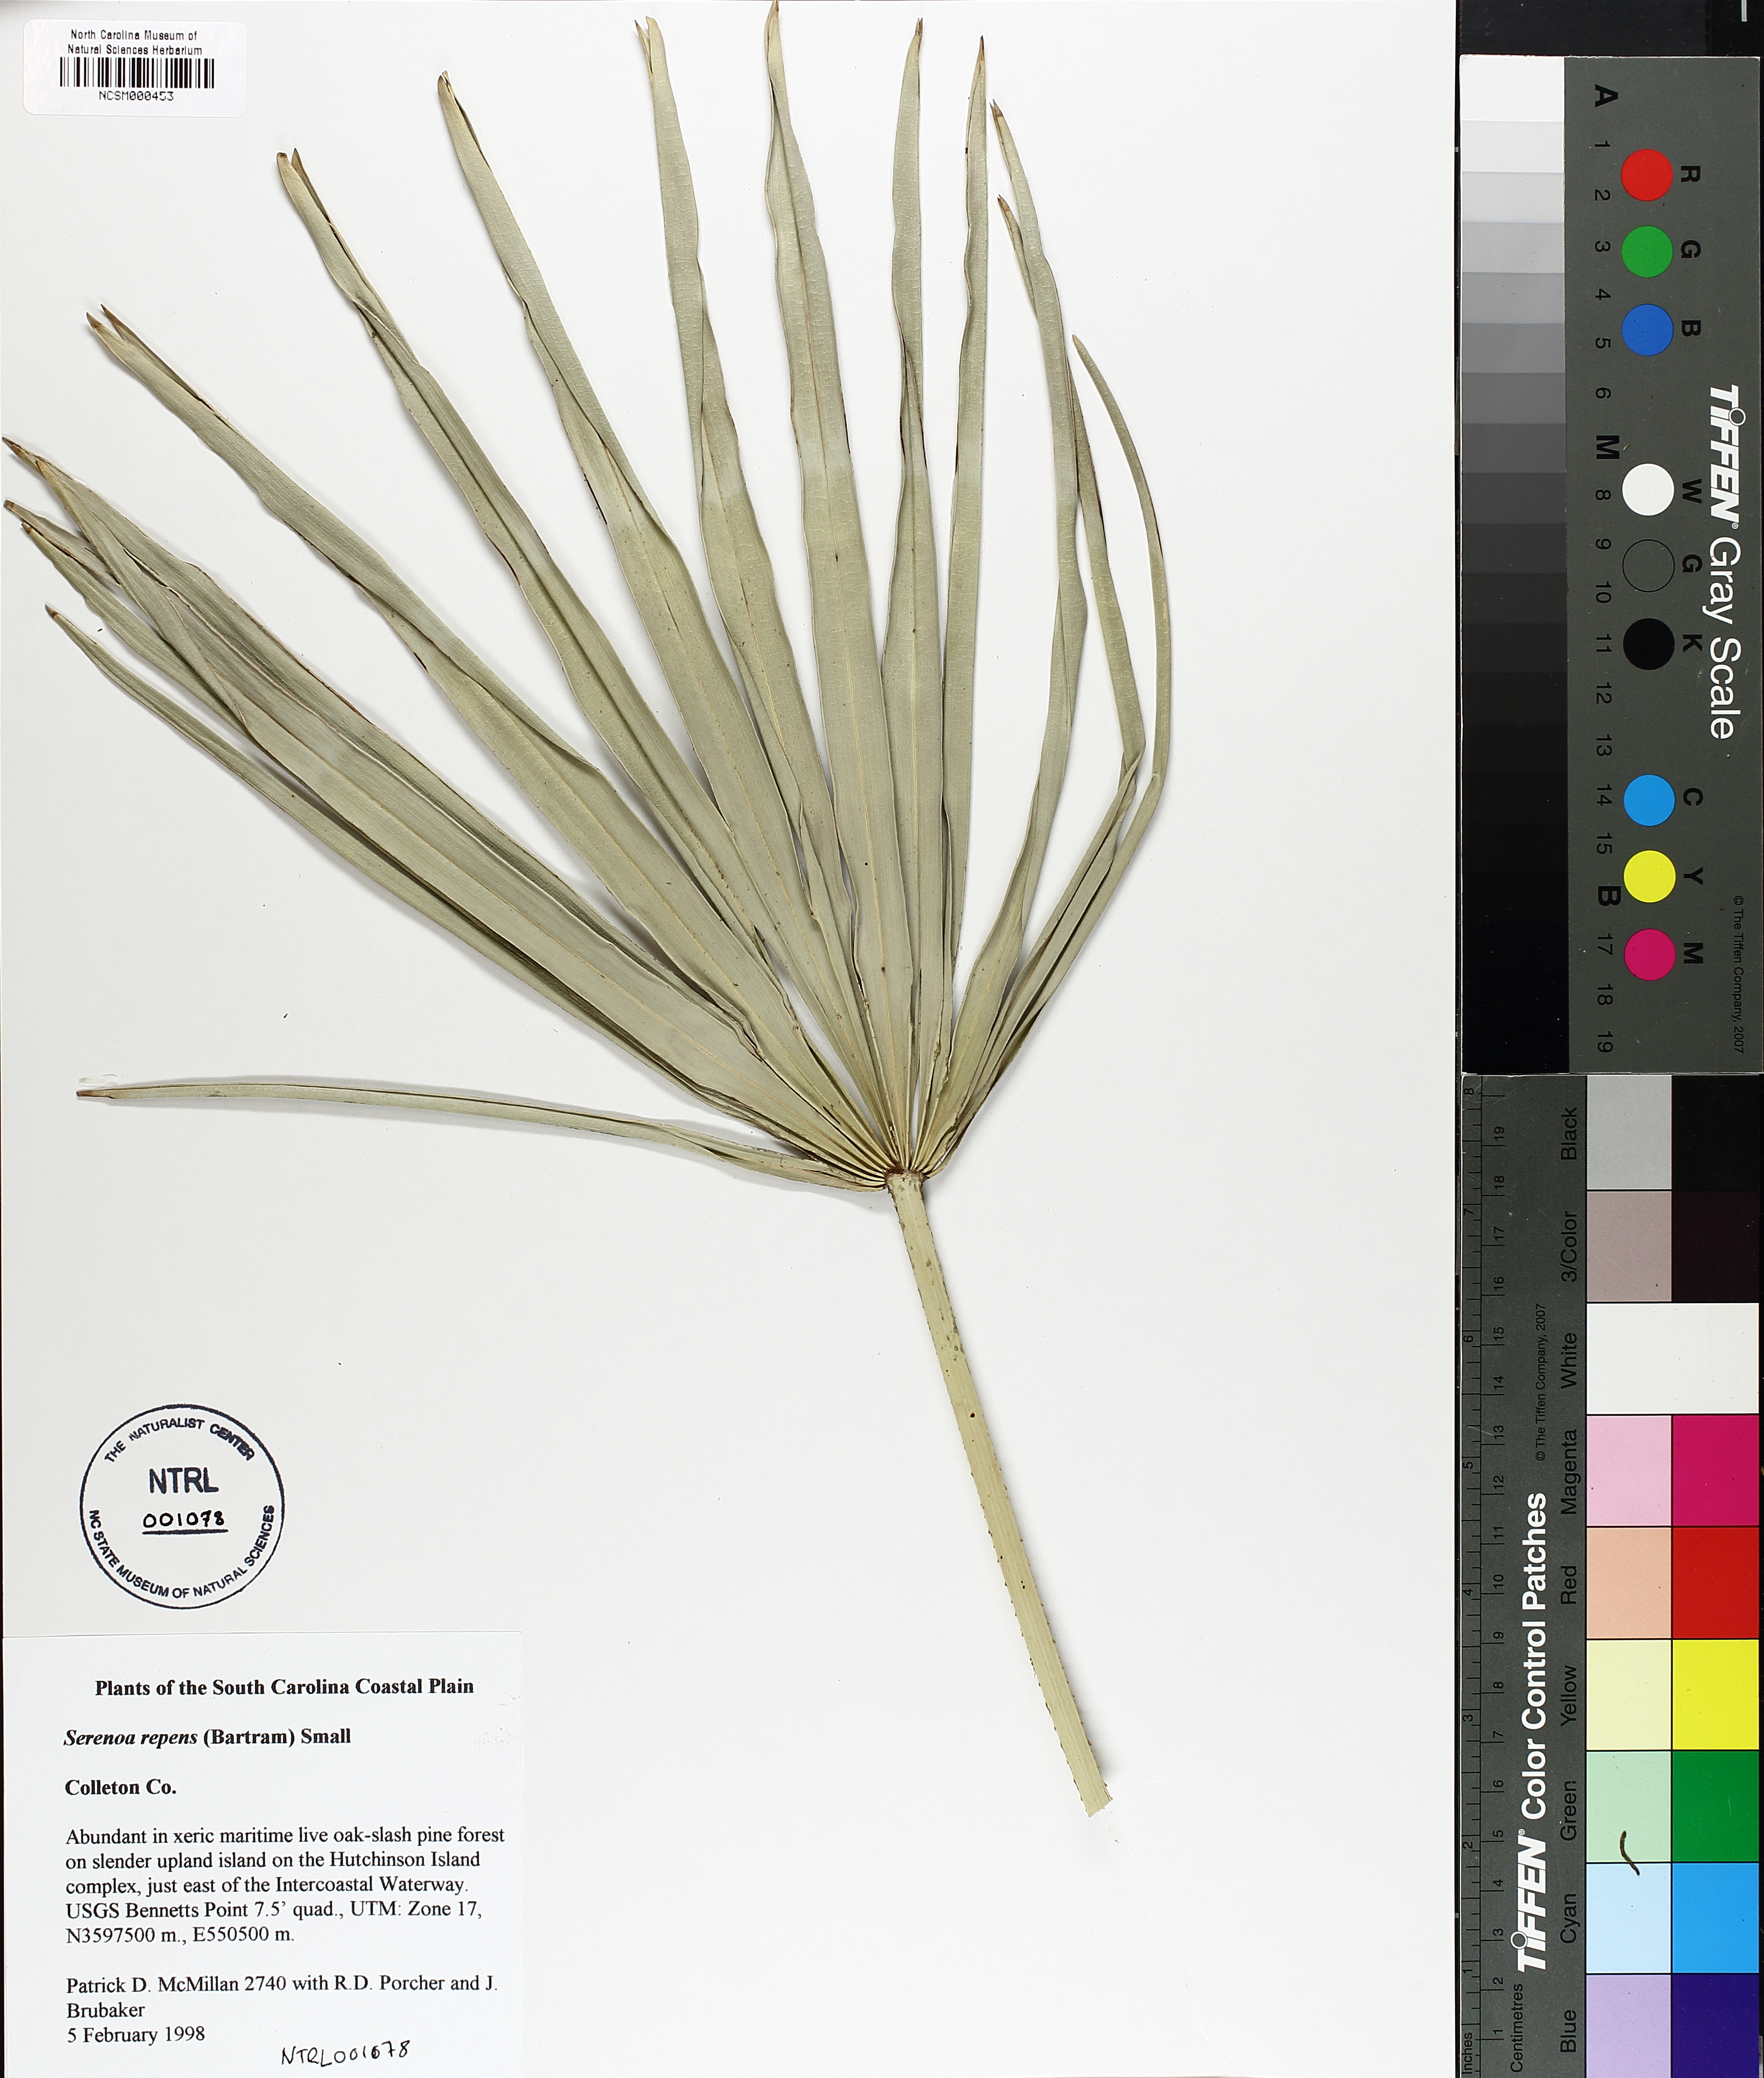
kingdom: Plantae
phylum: Tracheophyta
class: Liliopsida
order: Arecales
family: Arecaceae
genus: Serenoa
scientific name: Serenoa repens
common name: Saw-palmetto
